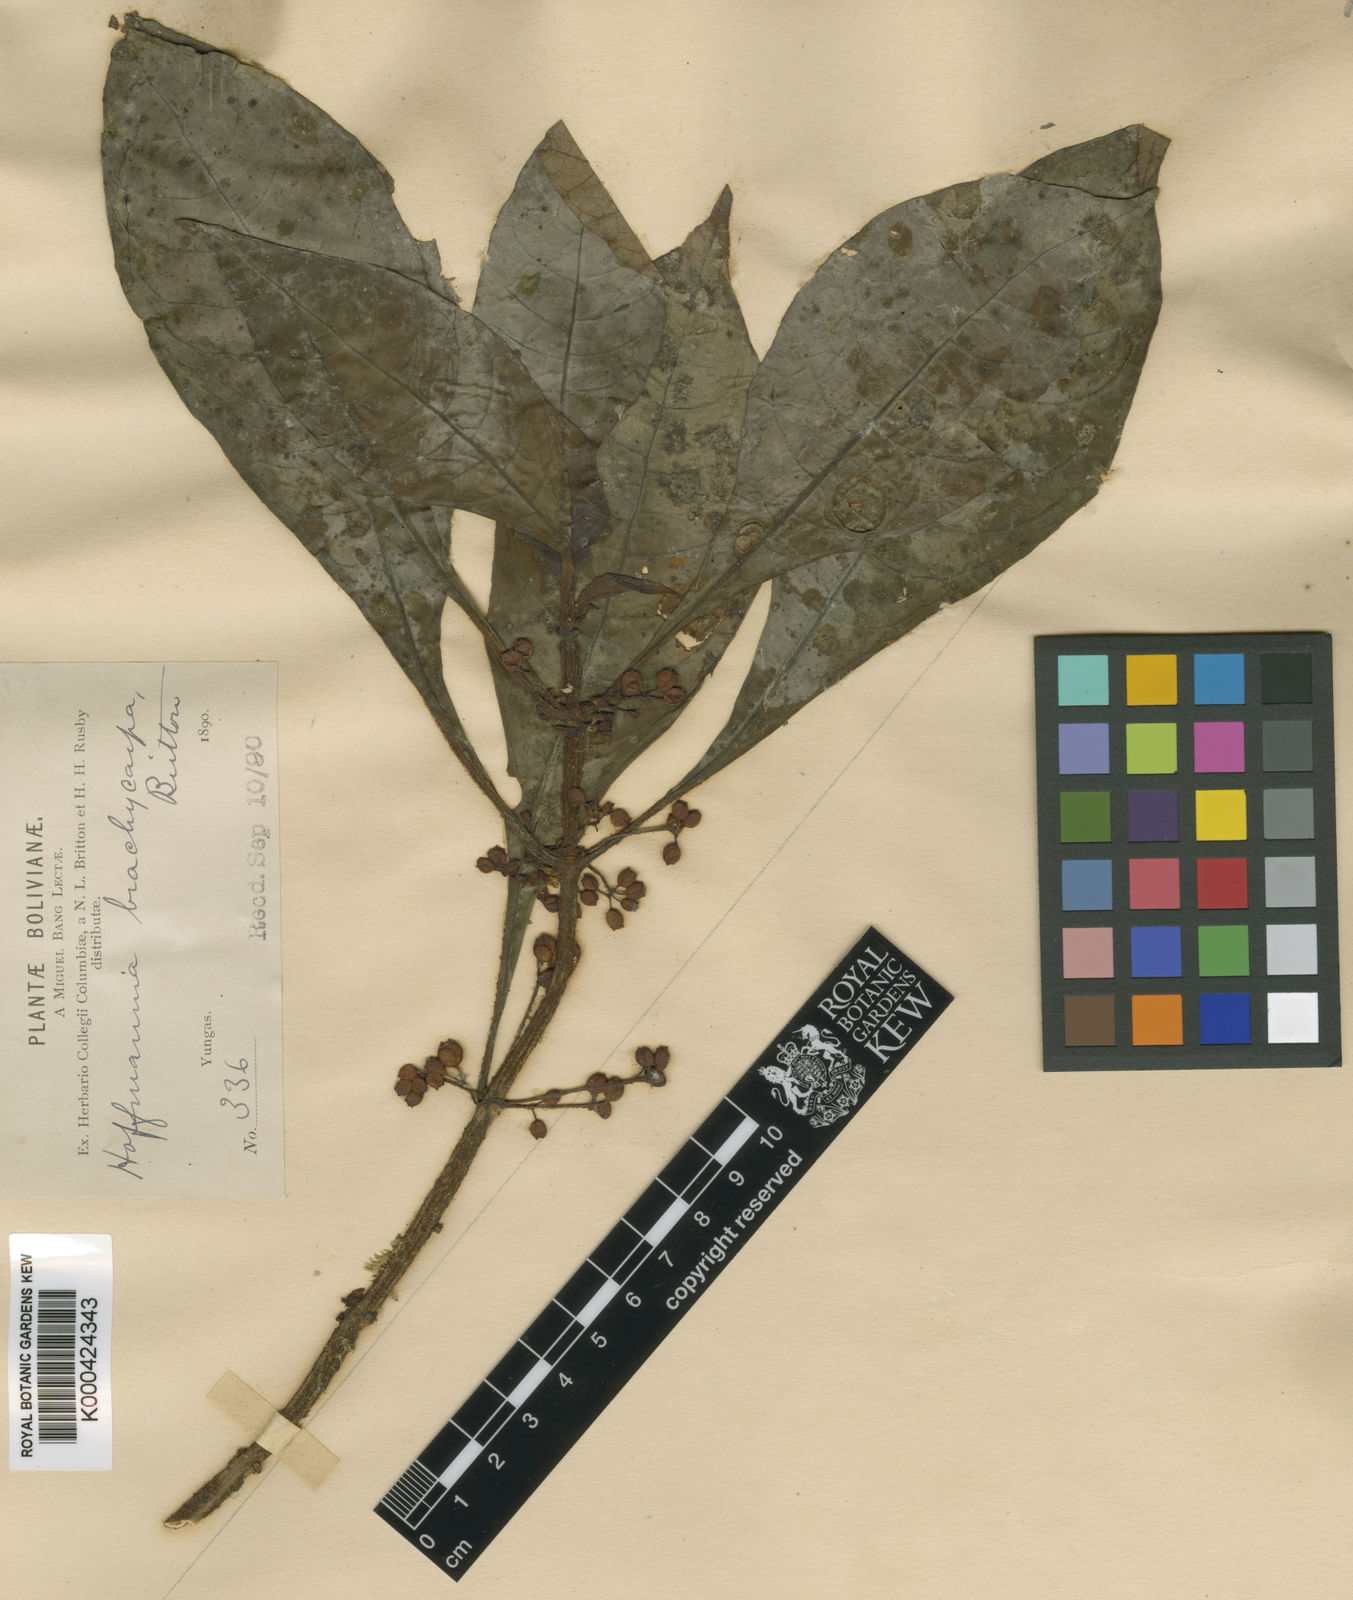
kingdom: Plantae
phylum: Tracheophyta
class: Magnoliopsida
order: Gentianales
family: Rubiaceae
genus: Hoffmannia
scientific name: Hoffmannia latifolia
